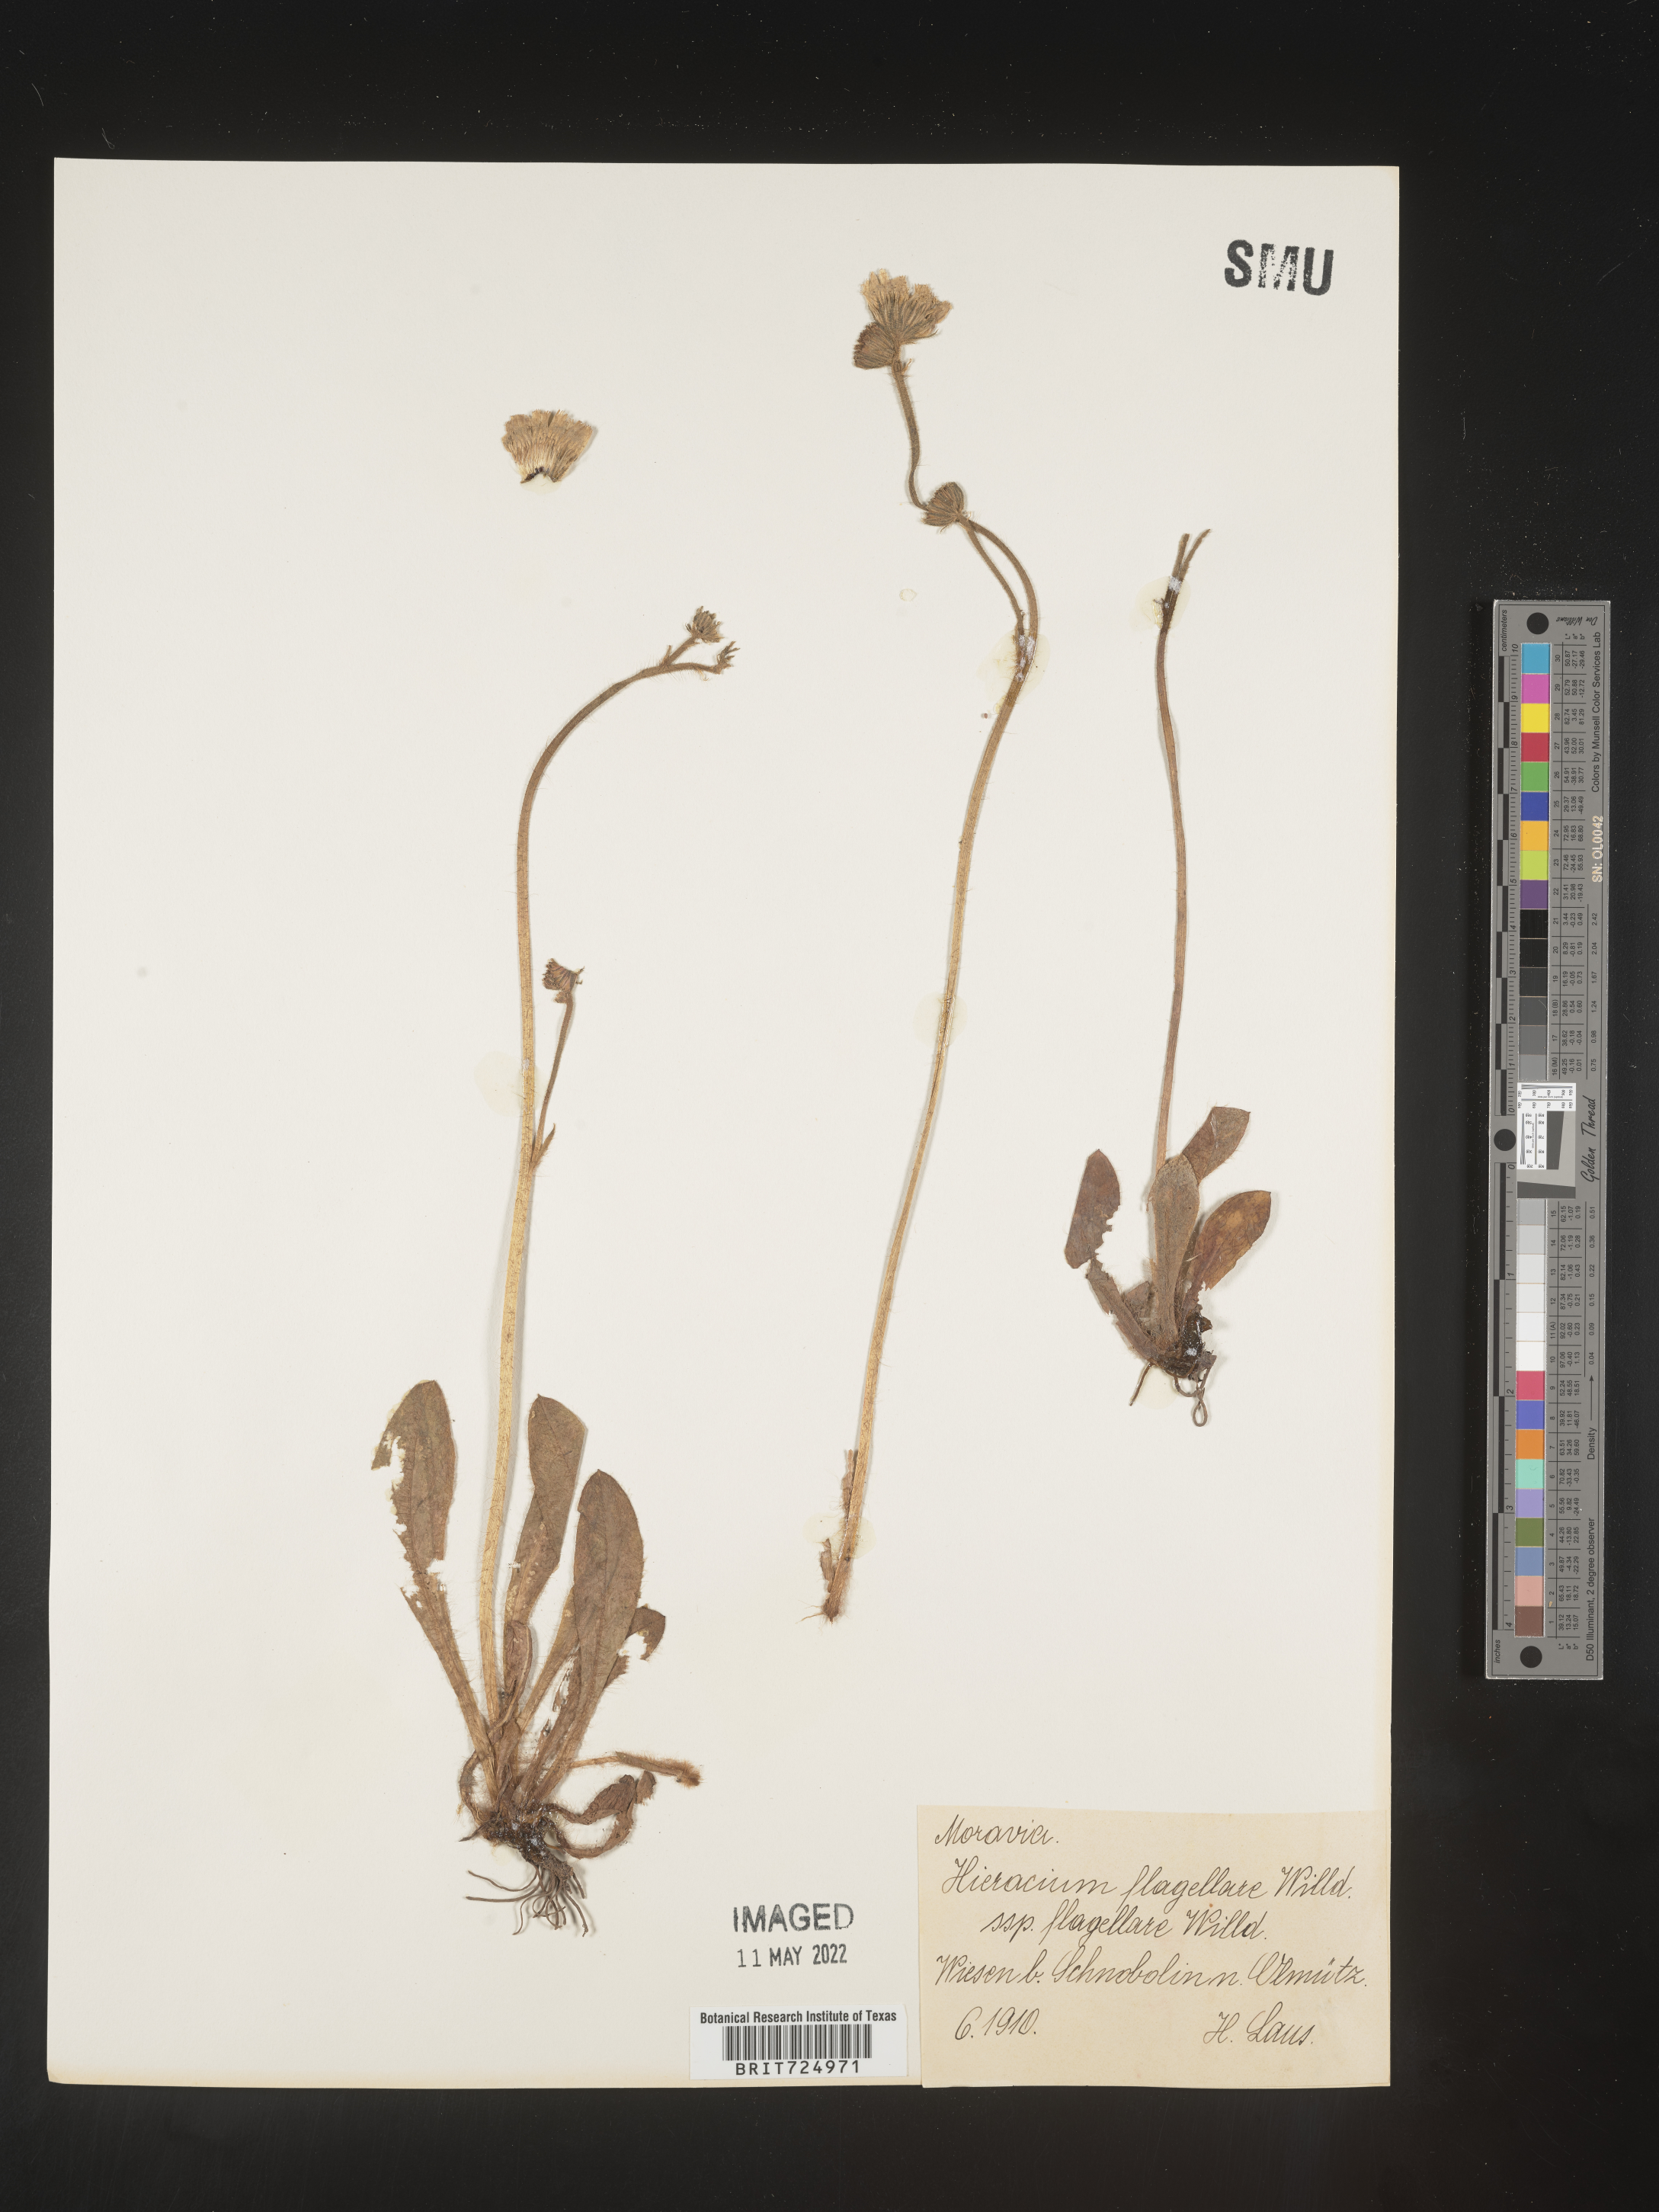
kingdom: Plantae
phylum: Tracheophyta
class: Magnoliopsida
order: Asterales
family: Asteraceae
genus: Hieracium
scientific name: Hieracium
